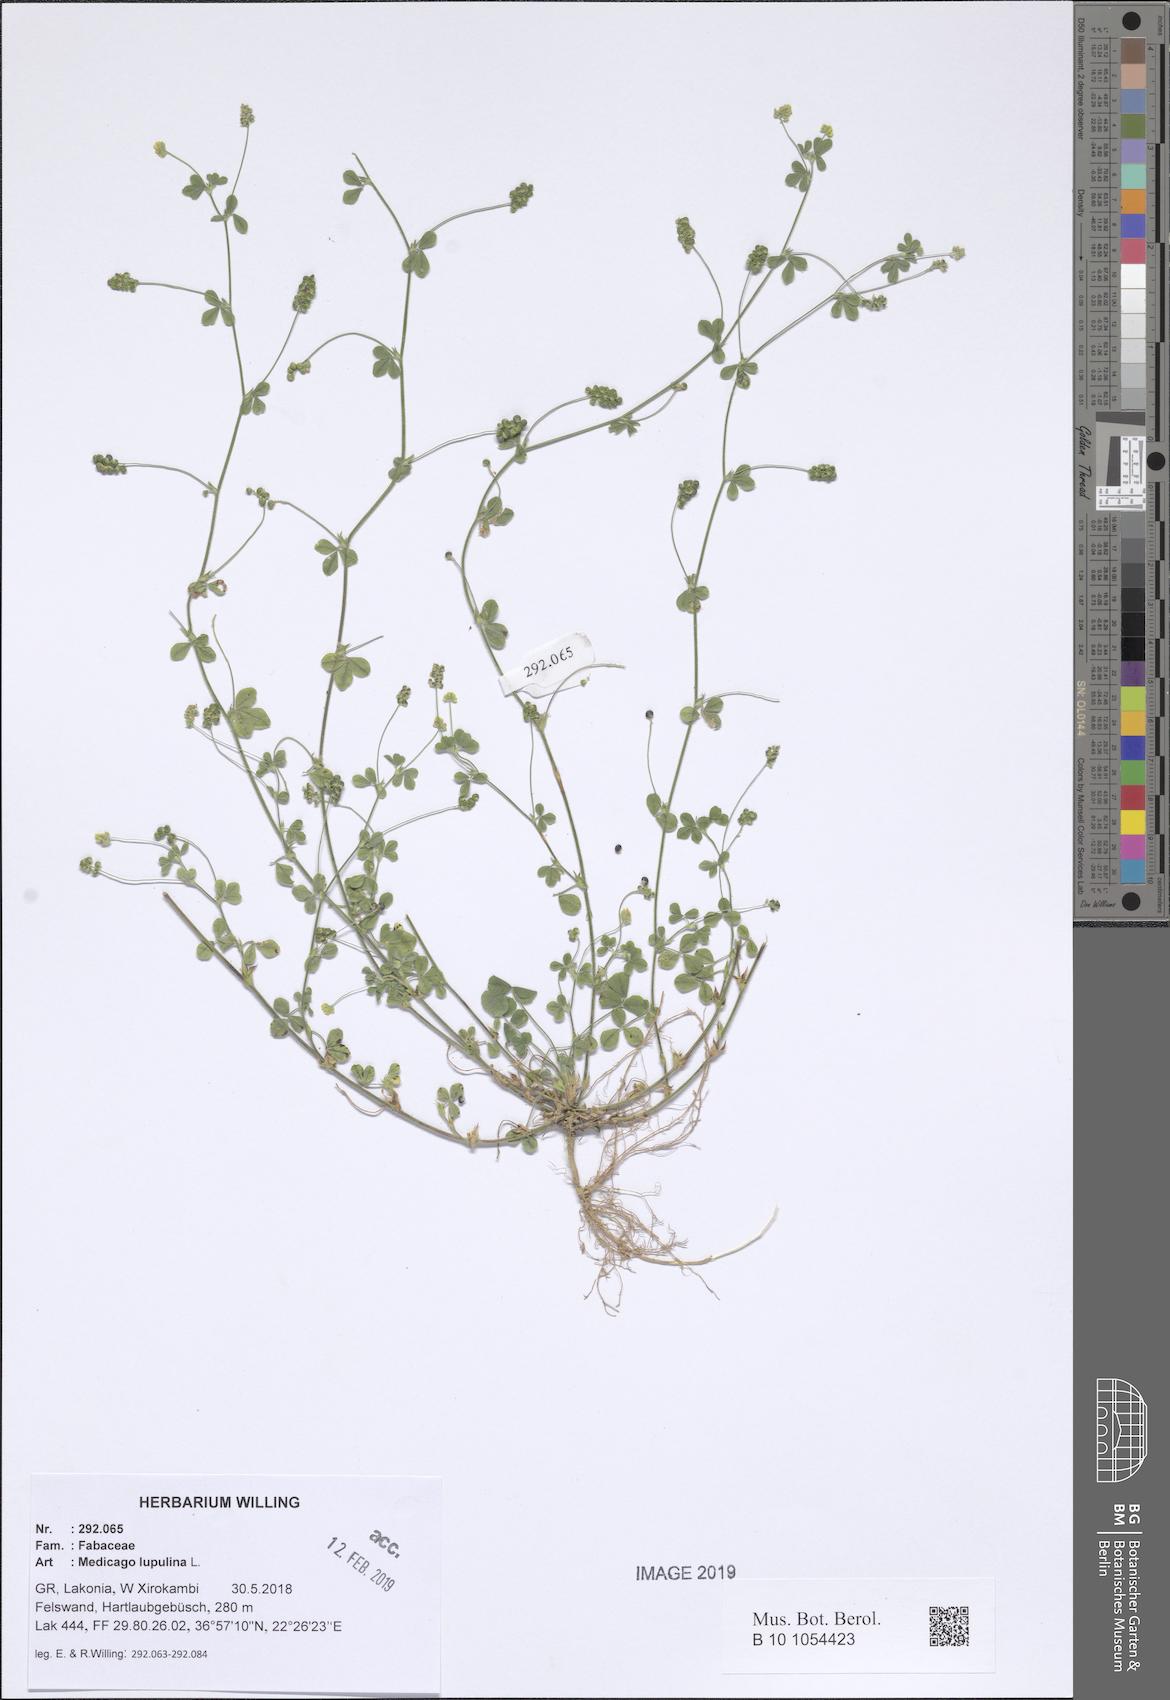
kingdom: Plantae
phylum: Tracheophyta
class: Magnoliopsida
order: Fabales
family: Fabaceae
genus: Medicago
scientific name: Medicago lupulina
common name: Black medick
